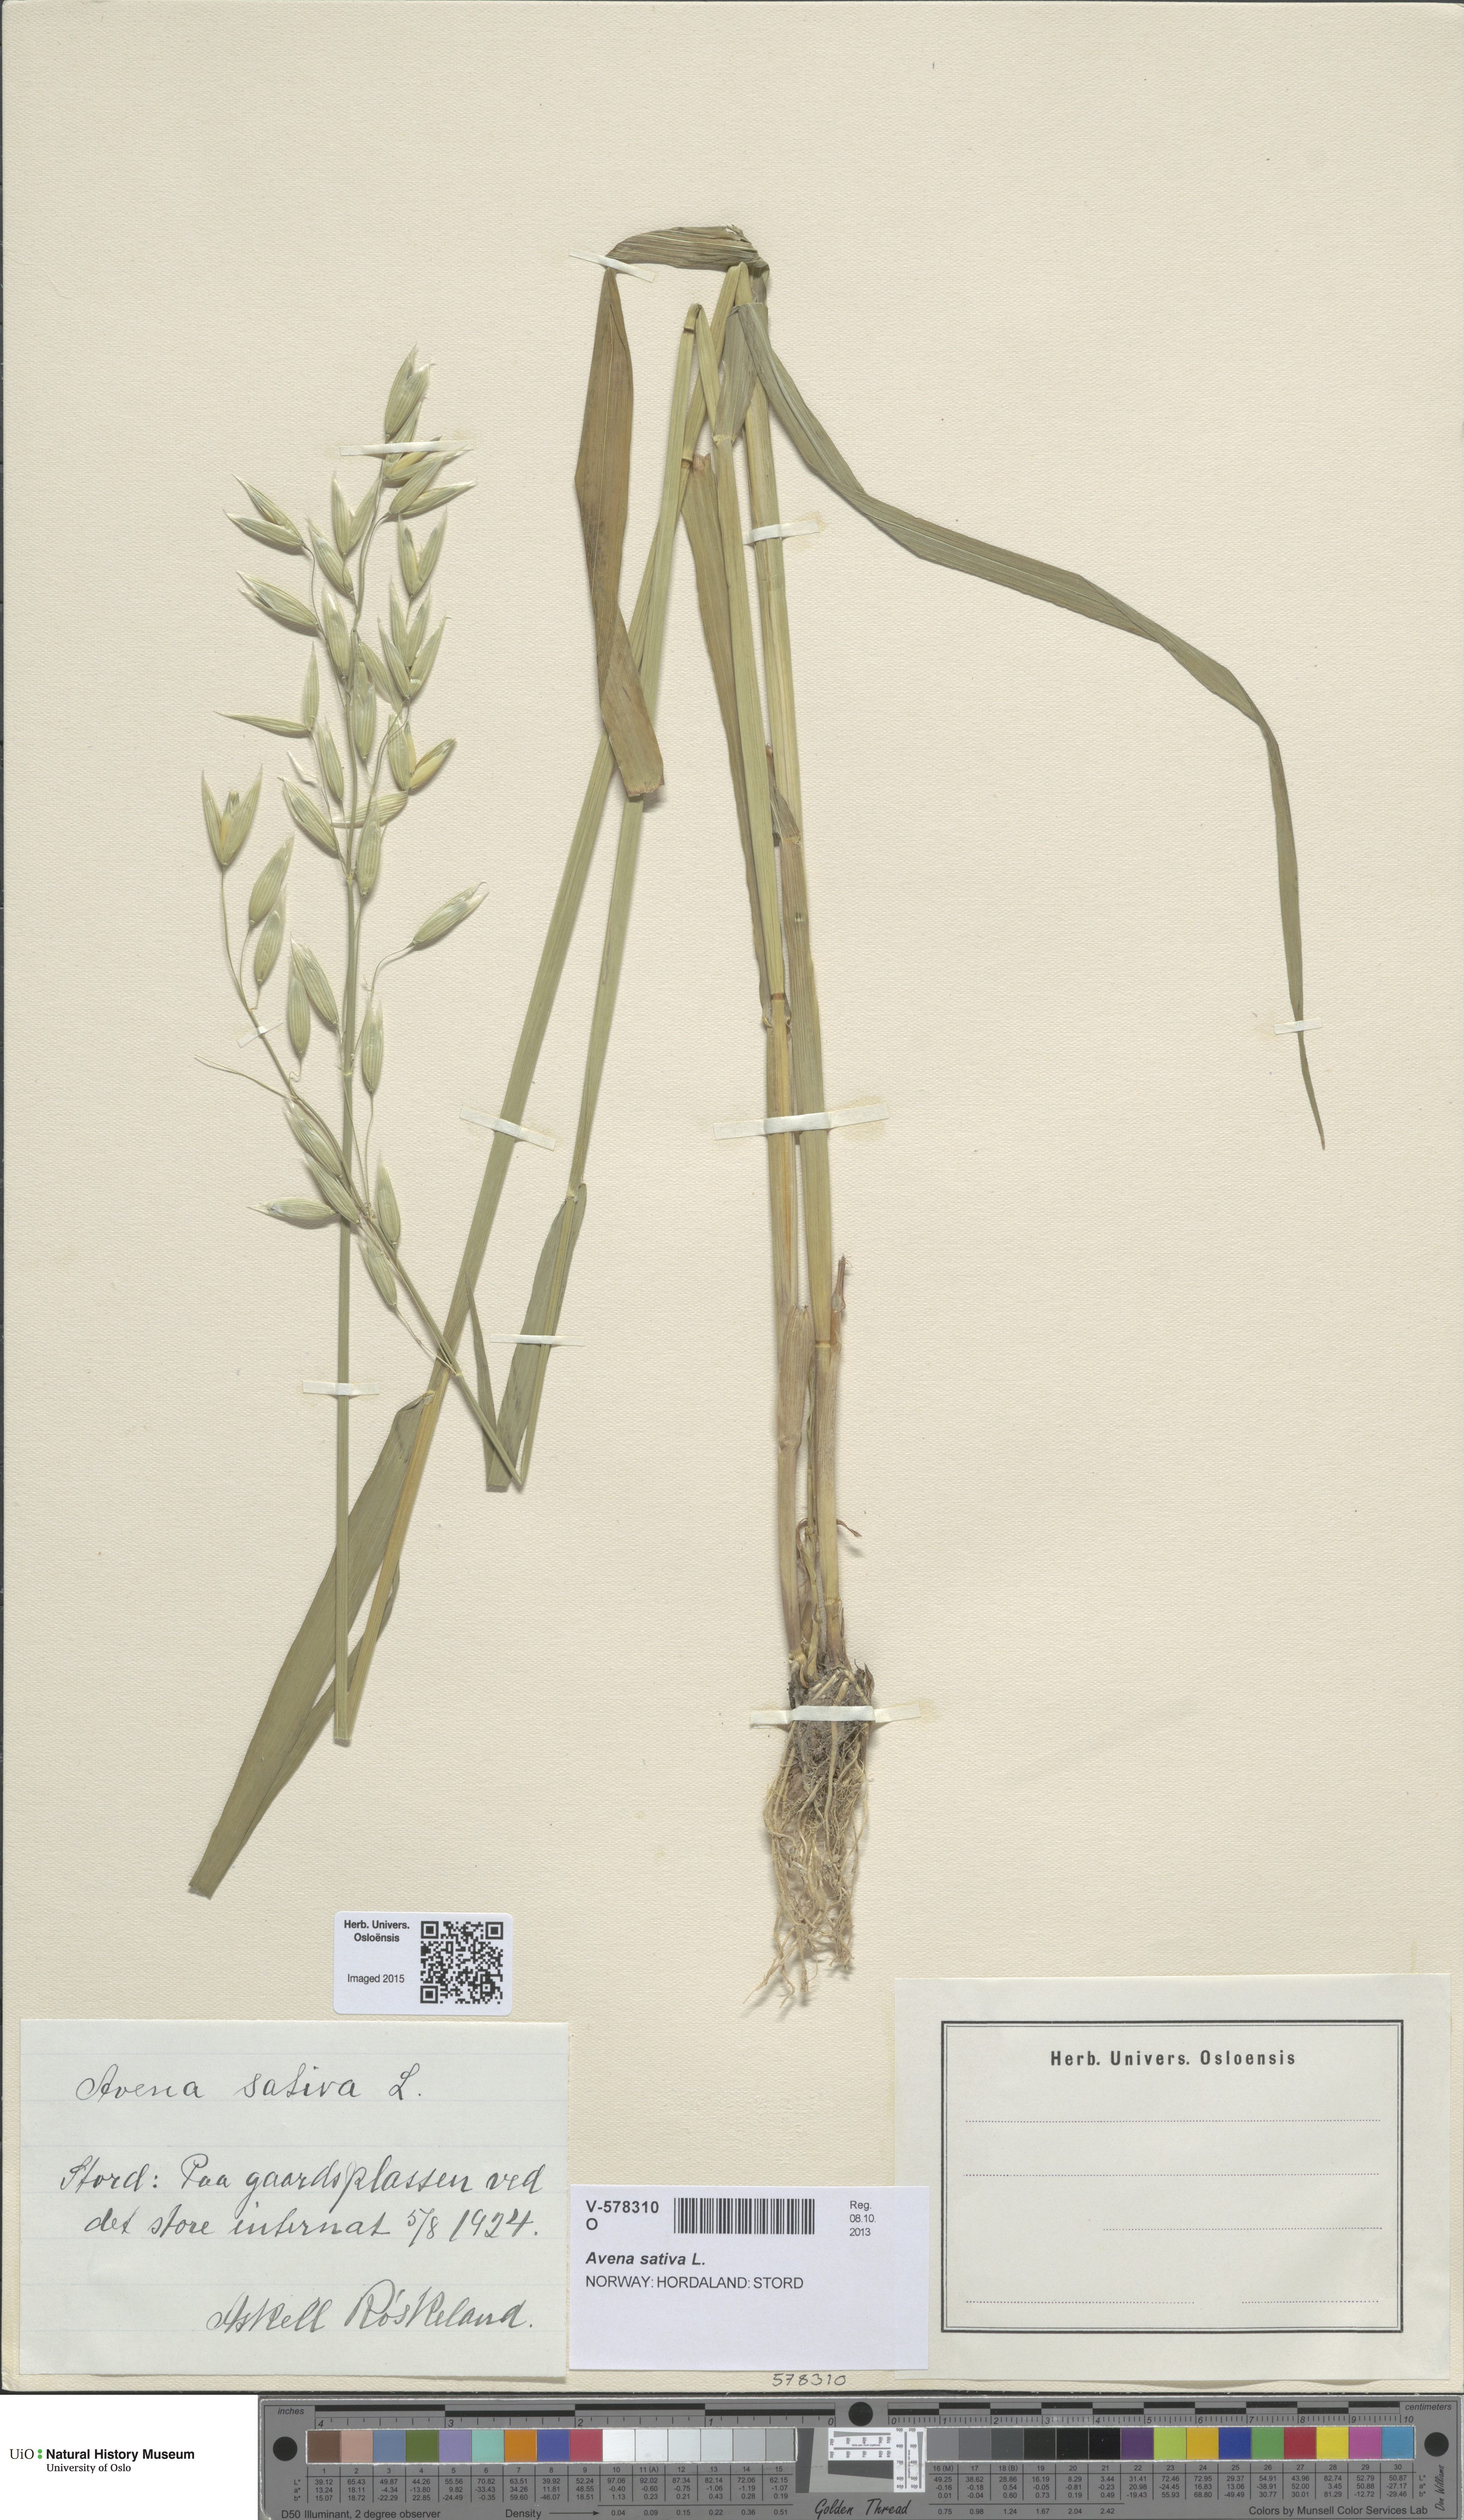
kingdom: Plantae
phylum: Tracheophyta
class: Liliopsida
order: Poales
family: Poaceae
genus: Avena
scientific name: Avena sativa
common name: Oat
